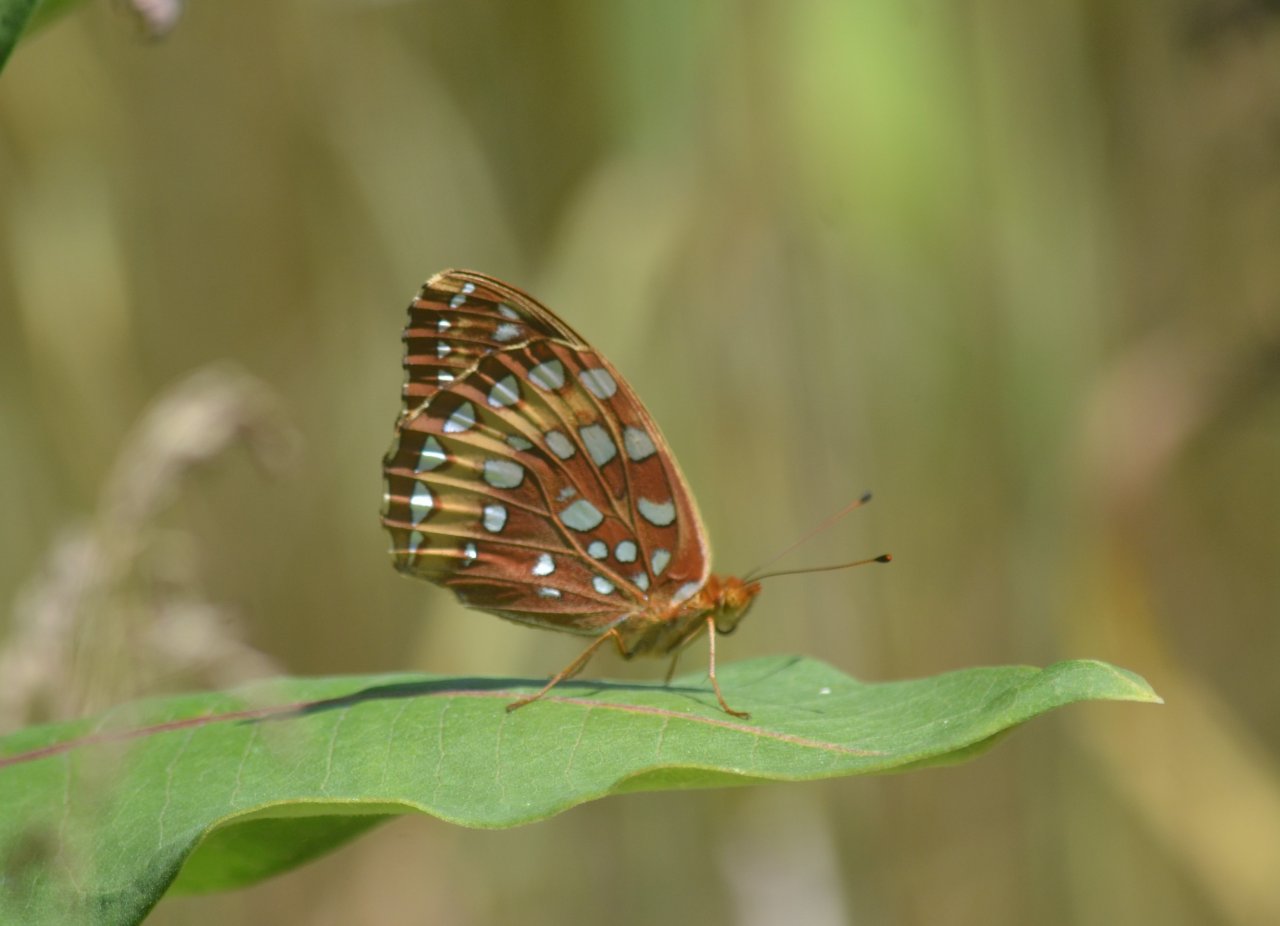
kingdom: Animalia
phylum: Arthropoda
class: Insecta
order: Lepidoptera
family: Nymphalidae
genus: Speyeria
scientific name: Speyeria cybele
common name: Great Spangled Fritillary
